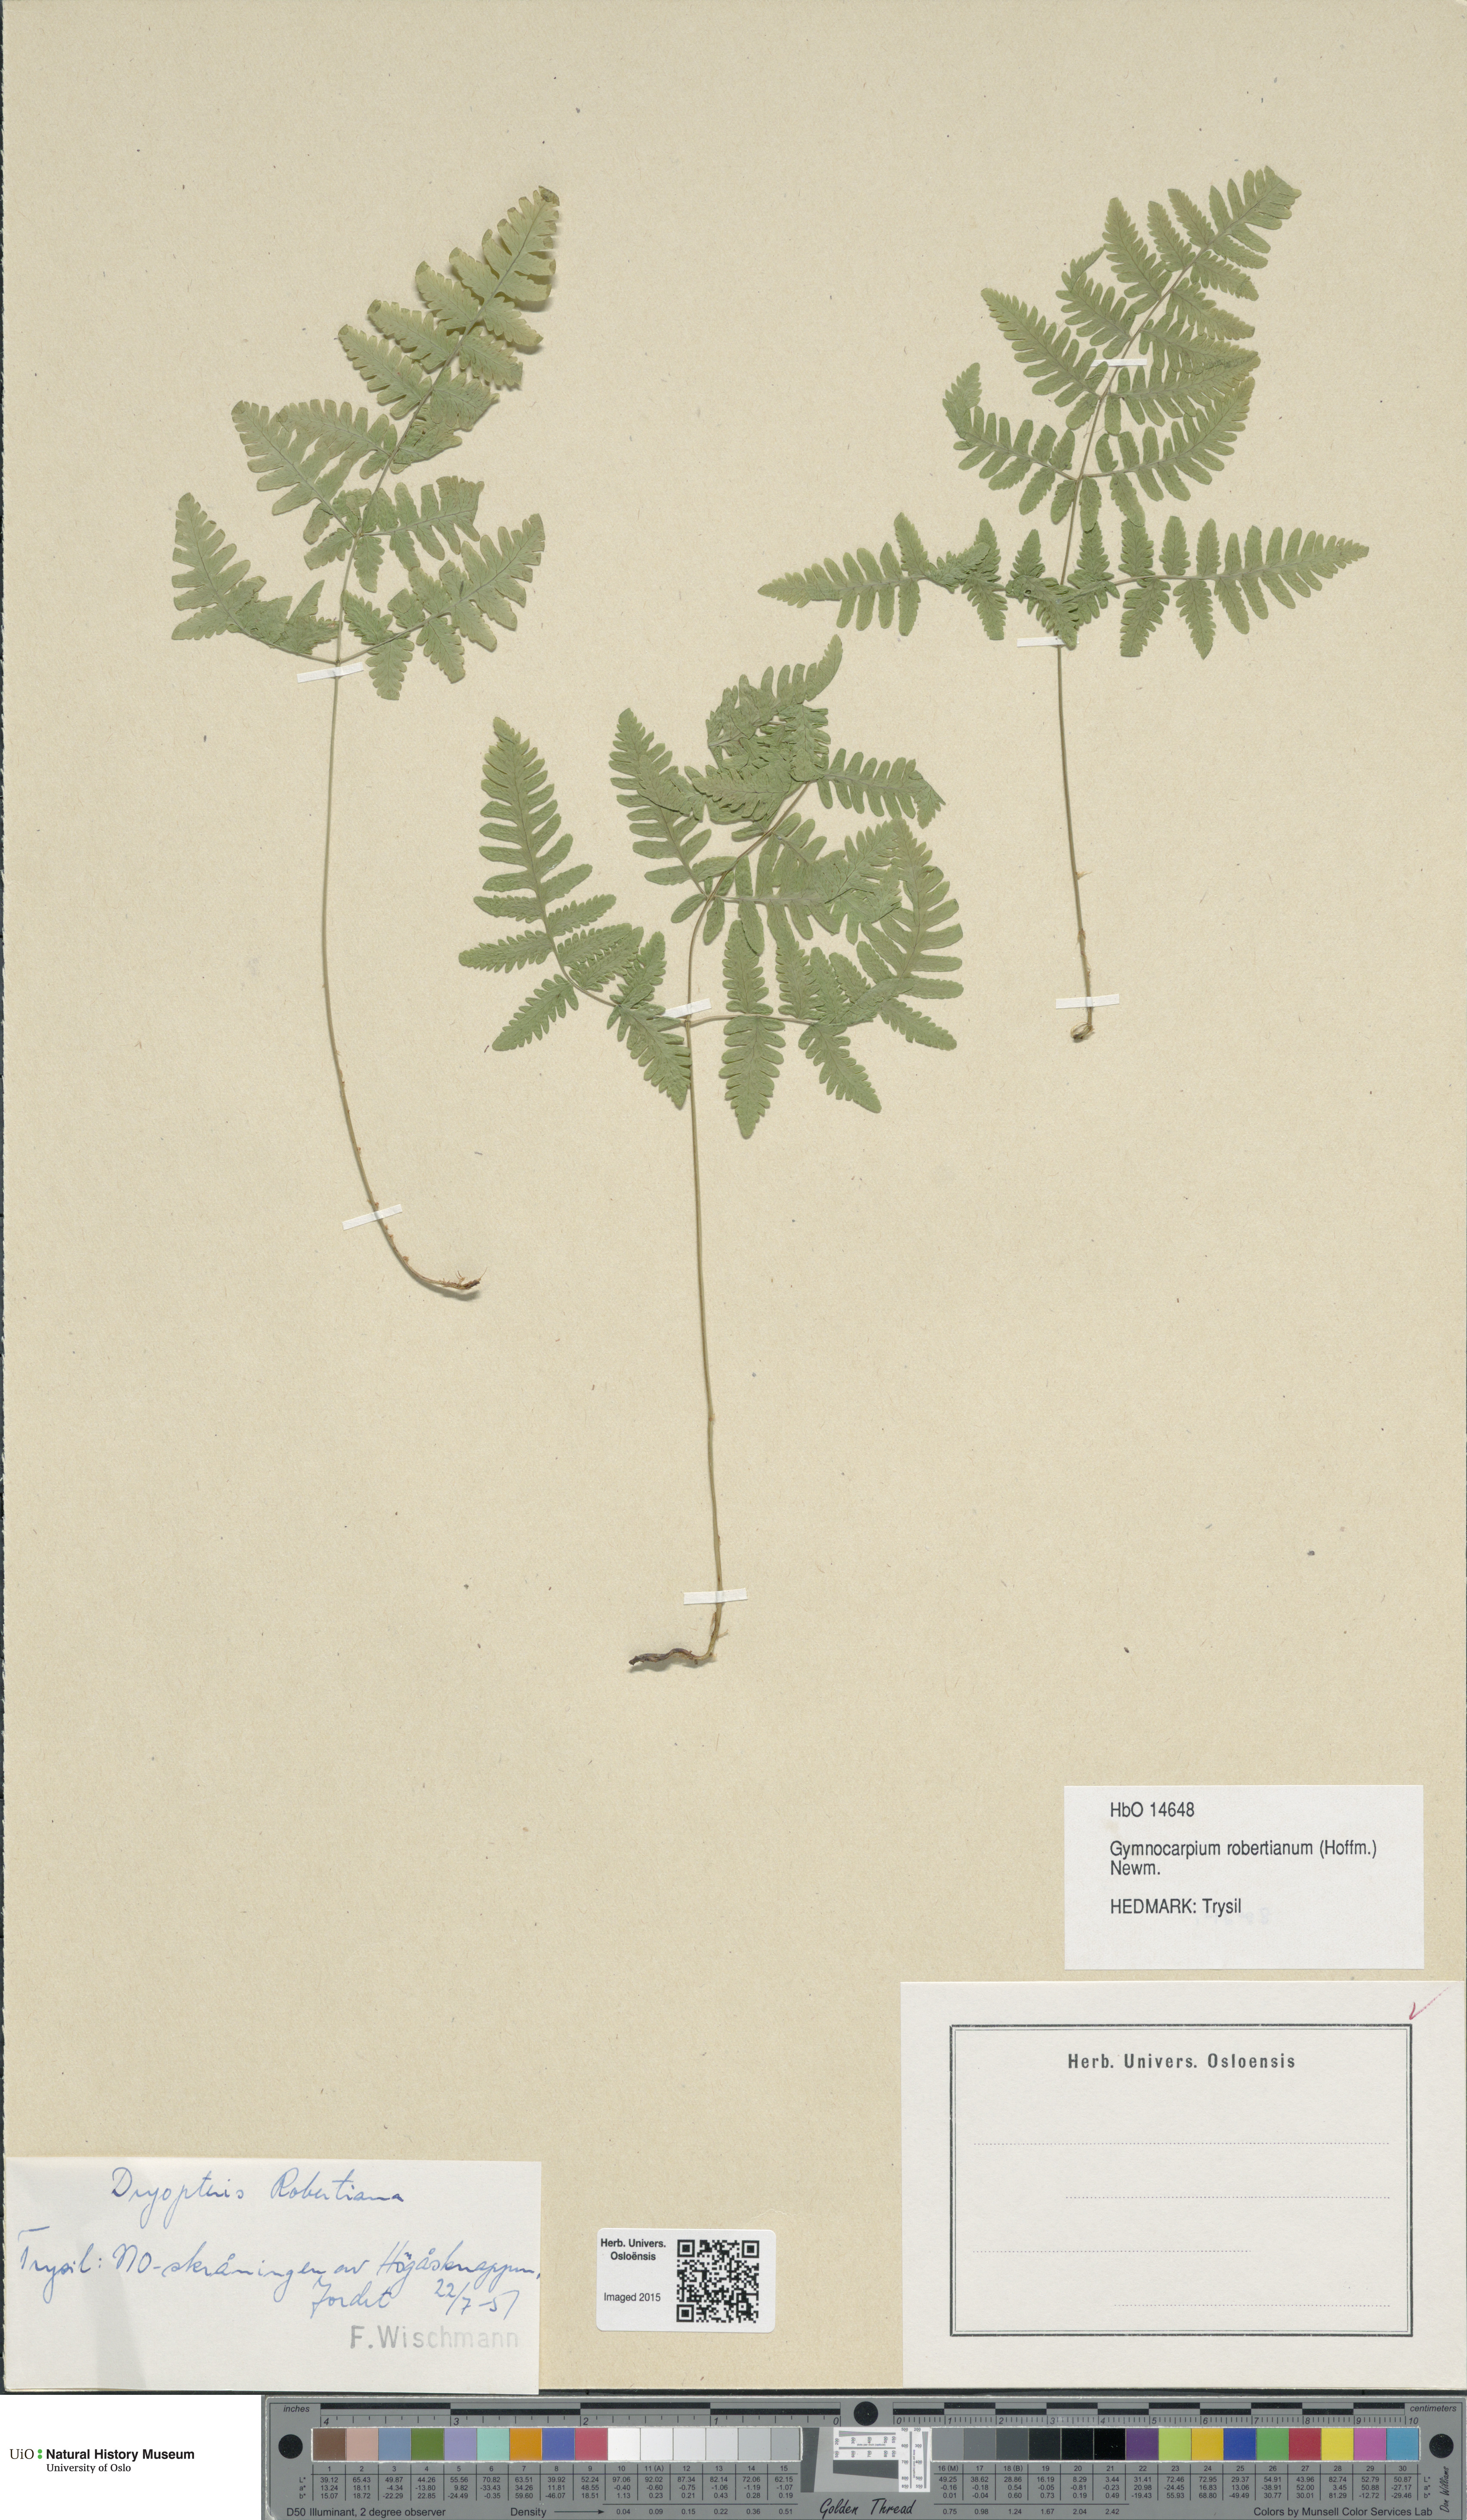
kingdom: Plantae
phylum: Tracheophyta
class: Polypodiopsida
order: Polypodiales
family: Cystopteridaceae
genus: Gymnocarpium
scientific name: Gymnocarpium robertianum
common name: Limestone fern
